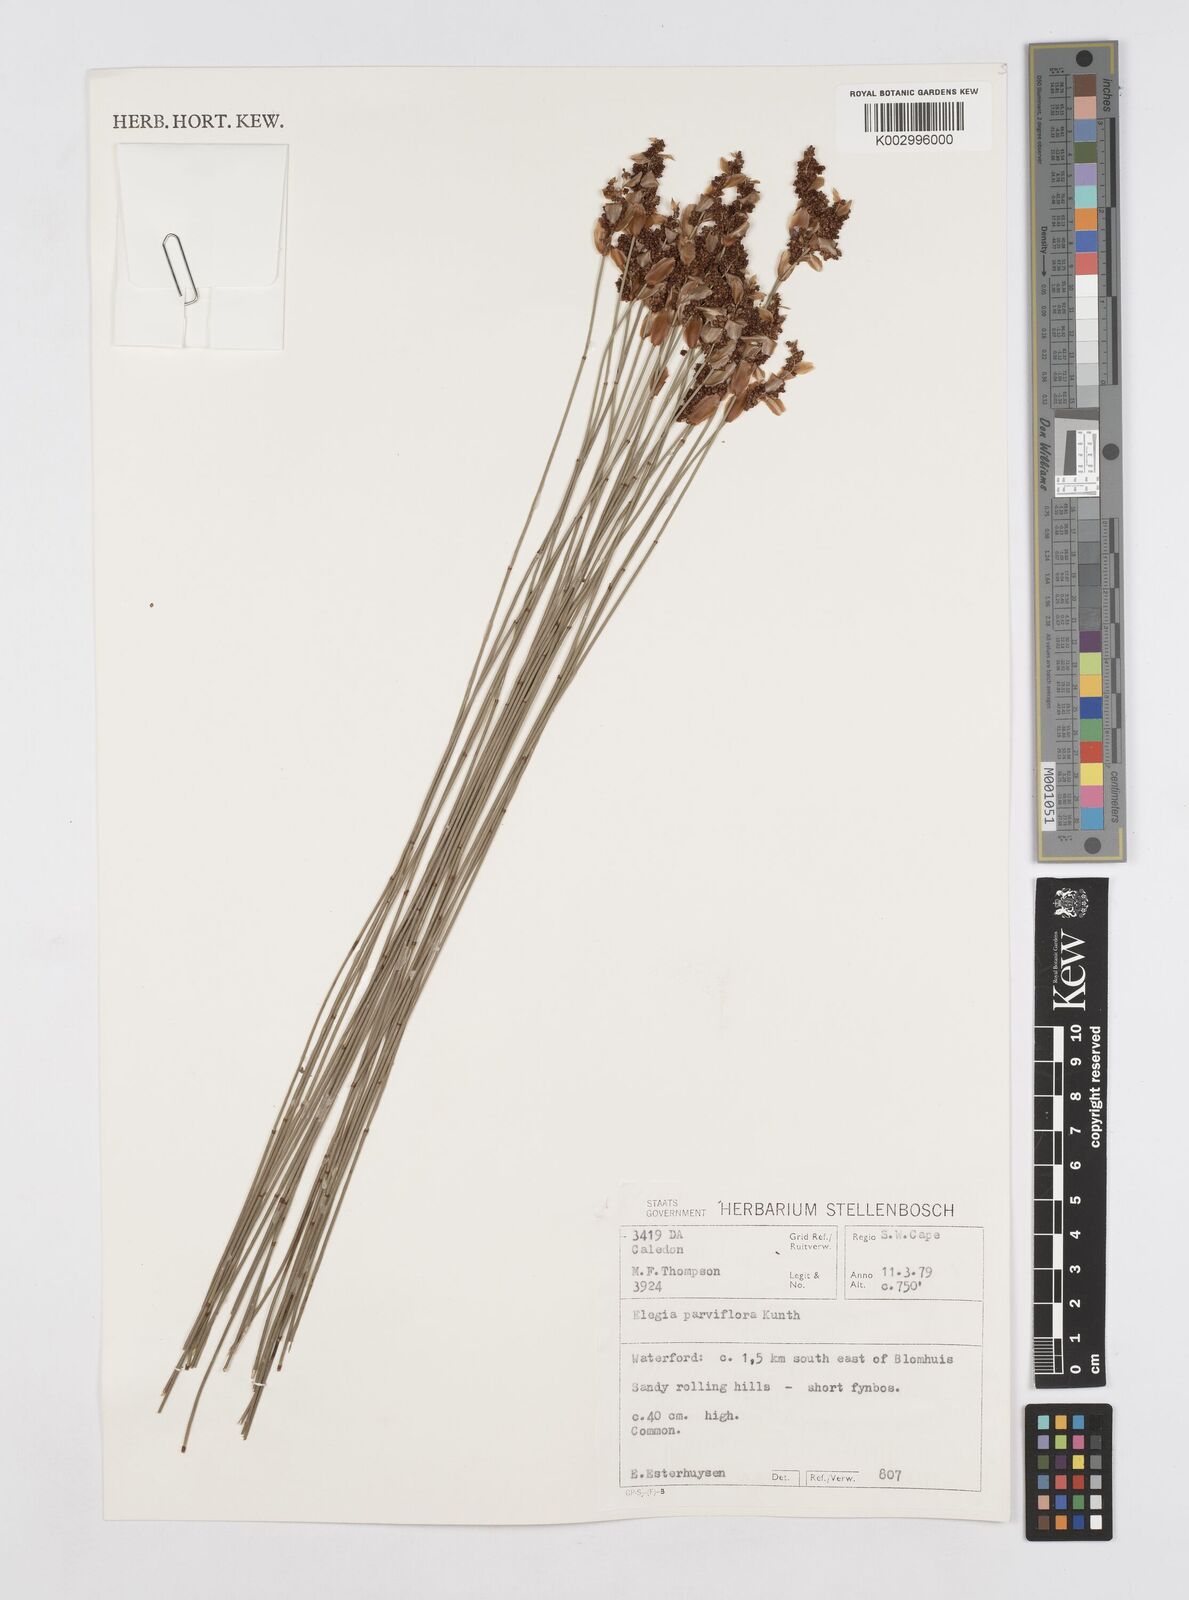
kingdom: Plantae
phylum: Tracheophyta
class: Liliopsida
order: Poales
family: Restionaceae
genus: Cannomois
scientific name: Cannomois parviflora
